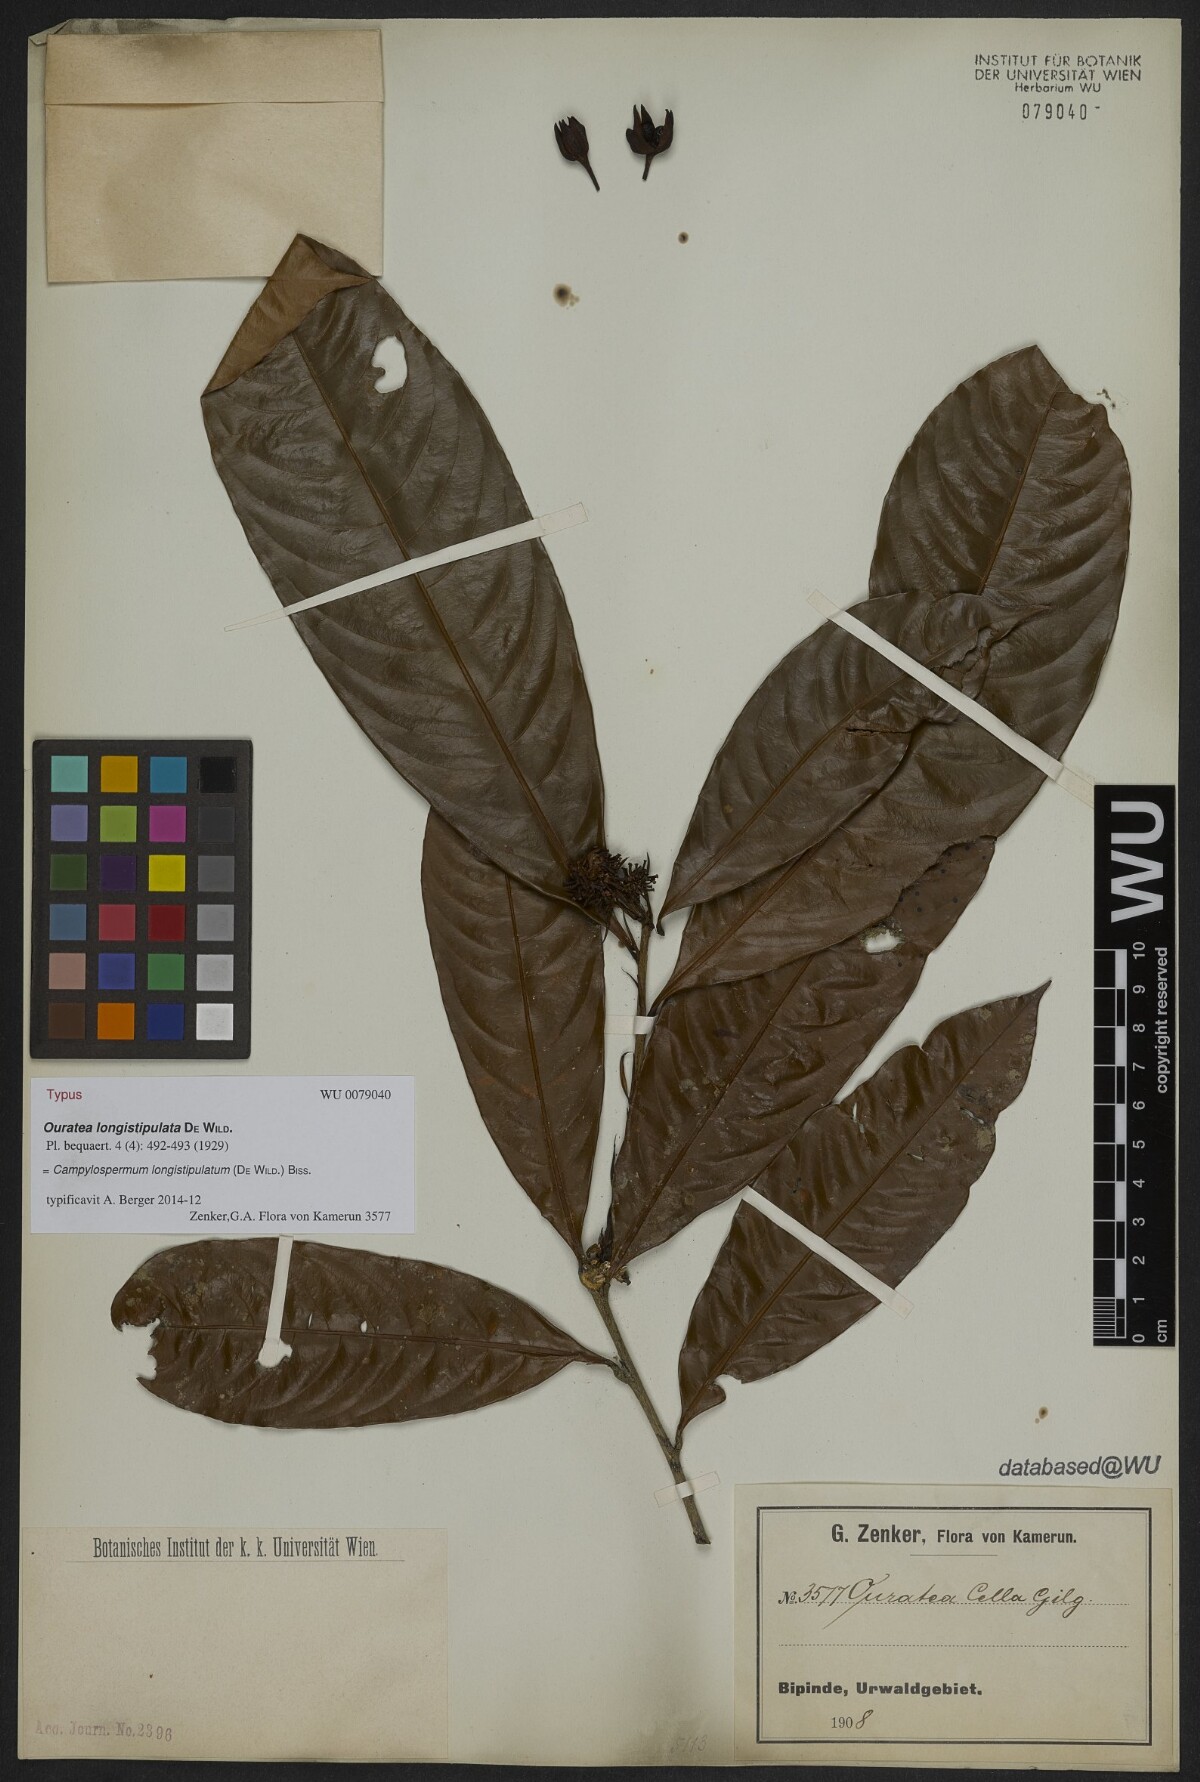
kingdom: Plantae
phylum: Tracheophyta
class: Magnoliopsida
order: Malpighiales
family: Ochnaceae
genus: Ouratea
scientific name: Ouratea longistipulata
